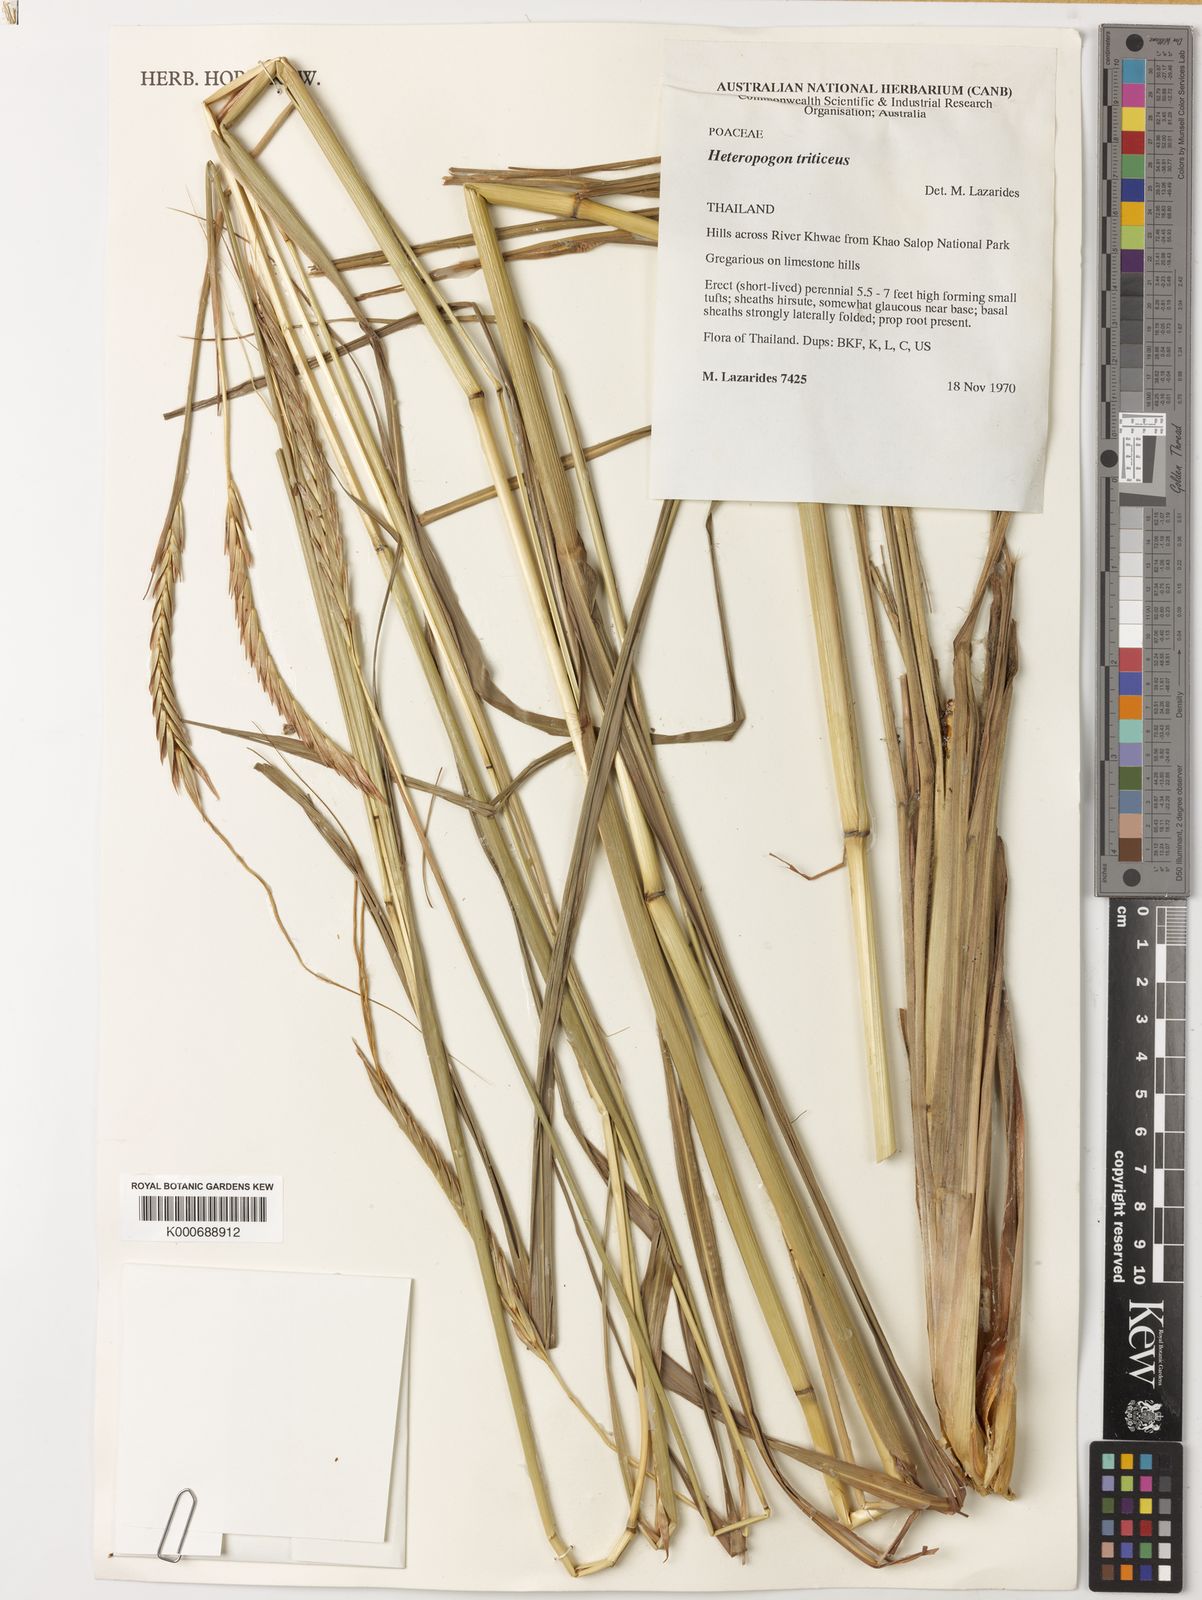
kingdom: Plantae
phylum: Tracheophyta
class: Liliopsida
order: Poales
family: Poaceae
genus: Heteropogon
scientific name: Heteropogon triticeus
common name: Sugar grass
